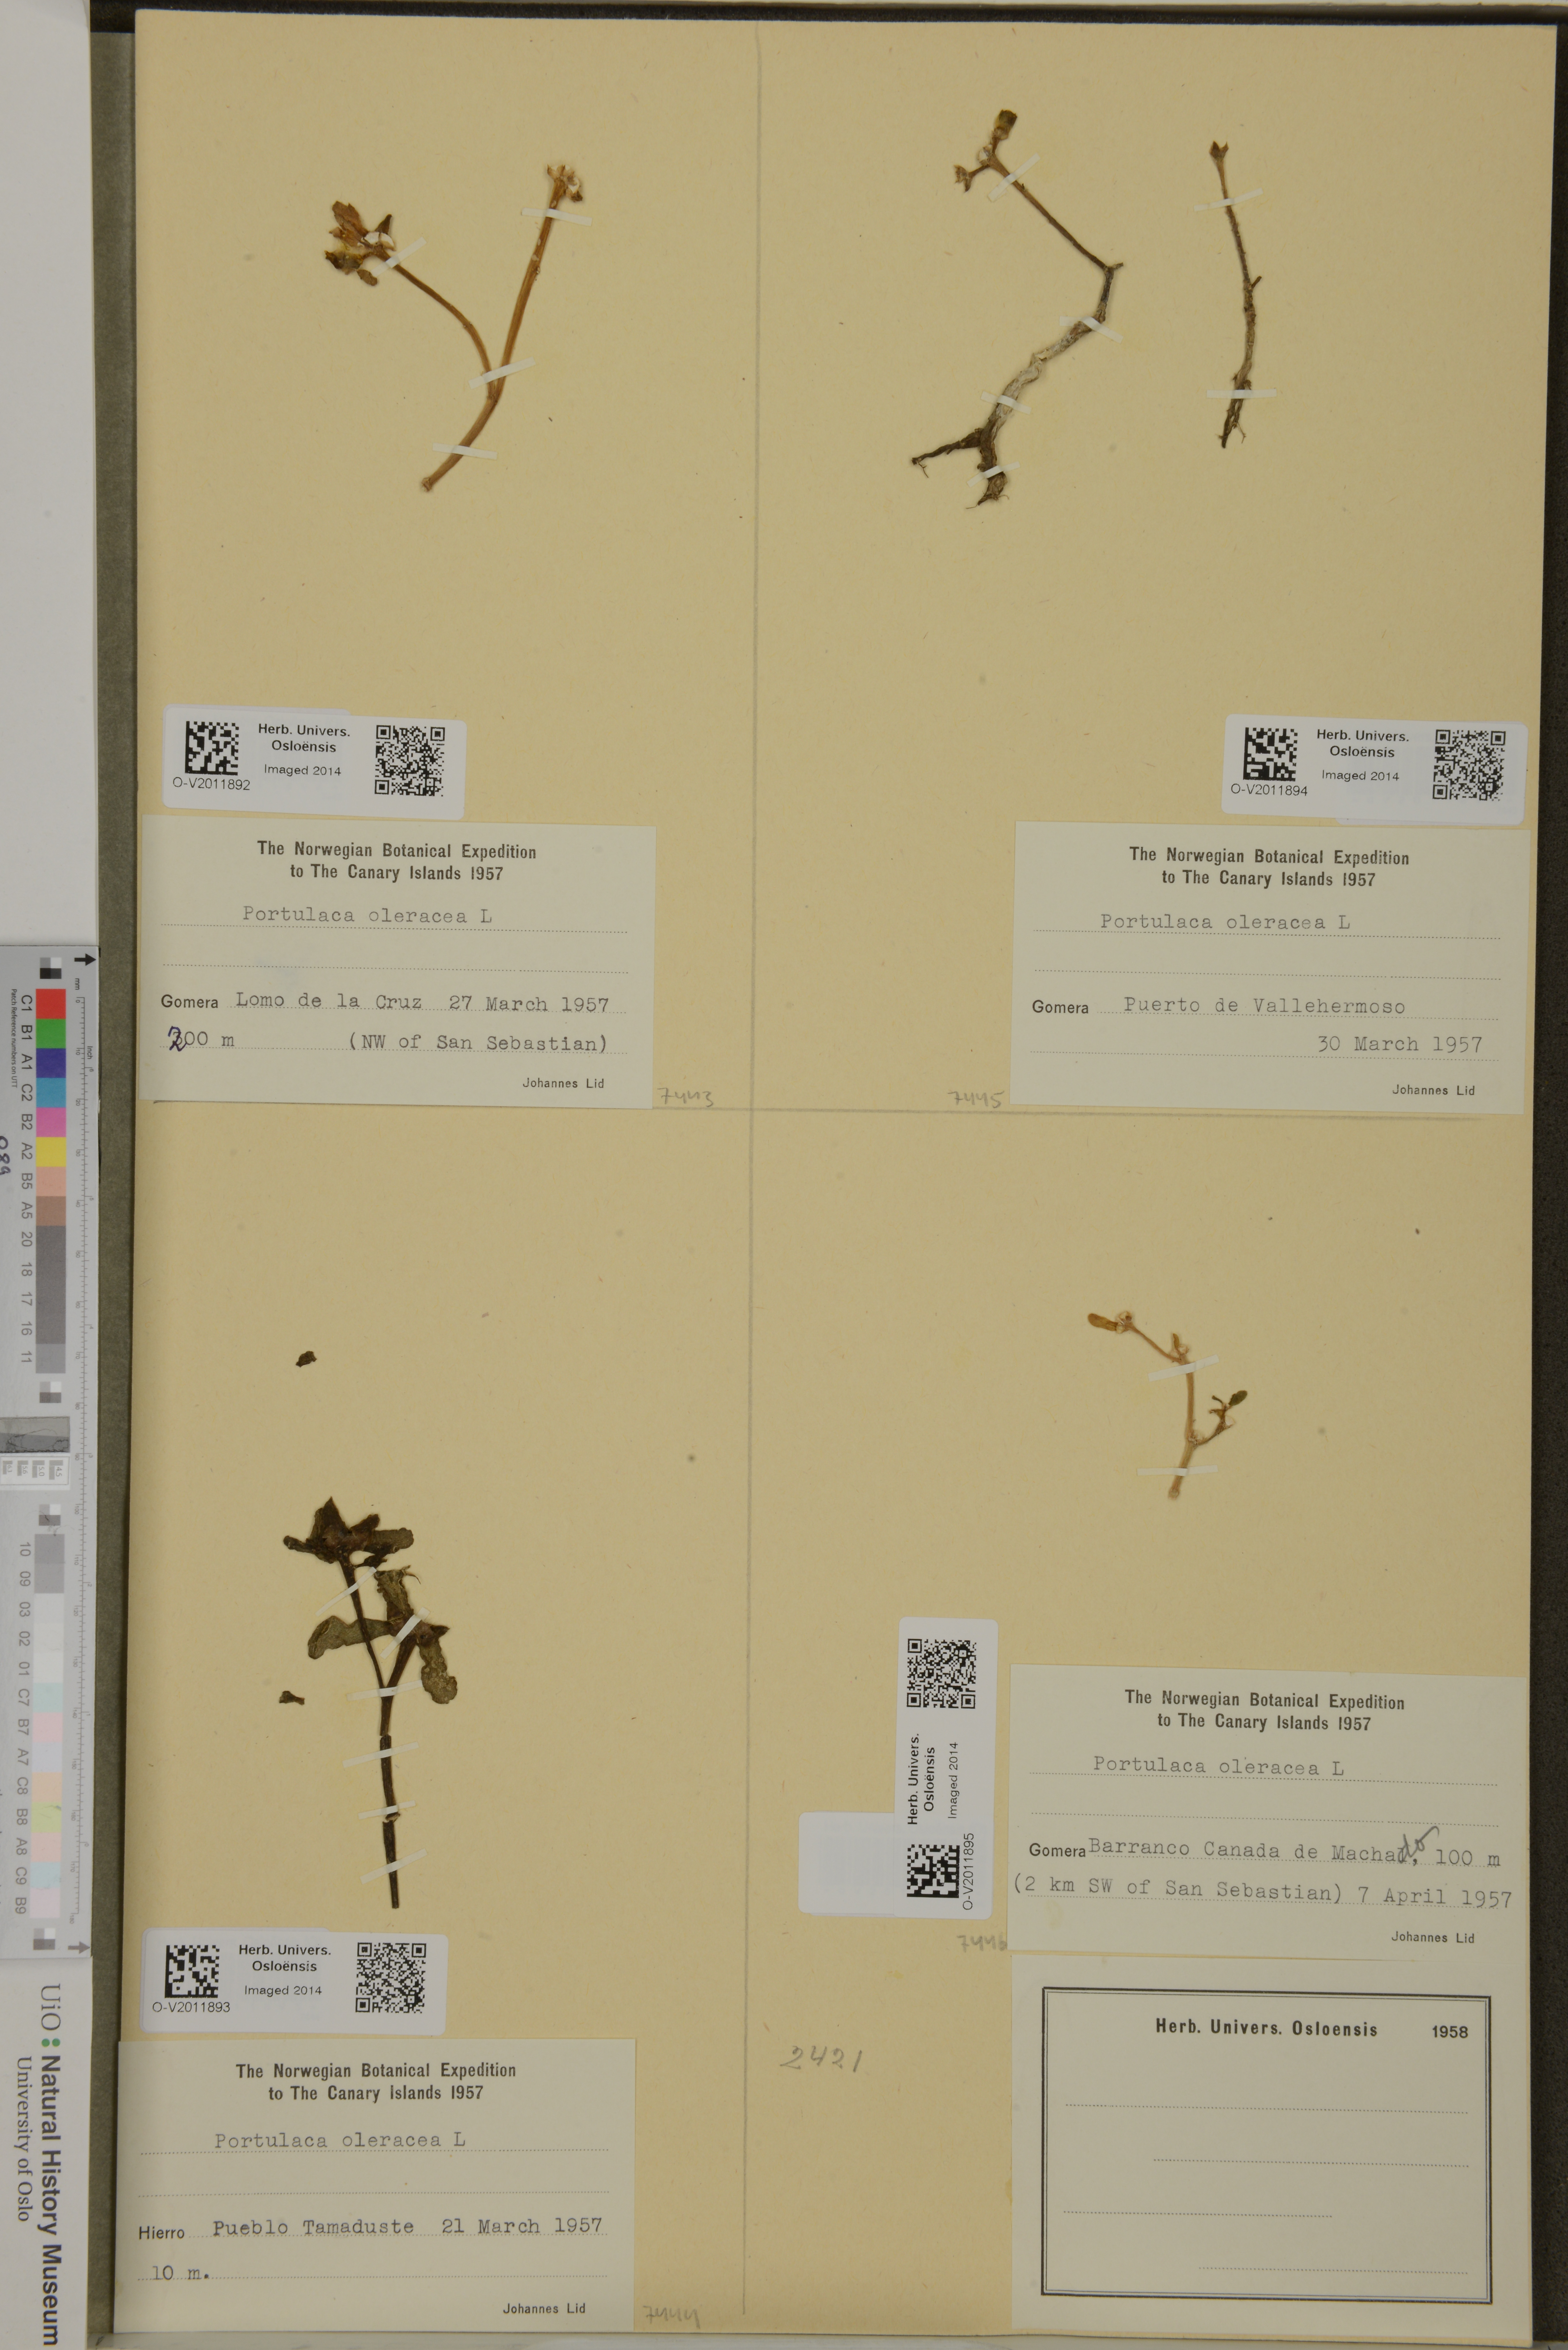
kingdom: Plantae
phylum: Tracheophyta
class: Magnoliopsida
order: Caryophyllales
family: Portulacaceae
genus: Portulaca
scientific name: Portulaca oleracea
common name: Common purslane
